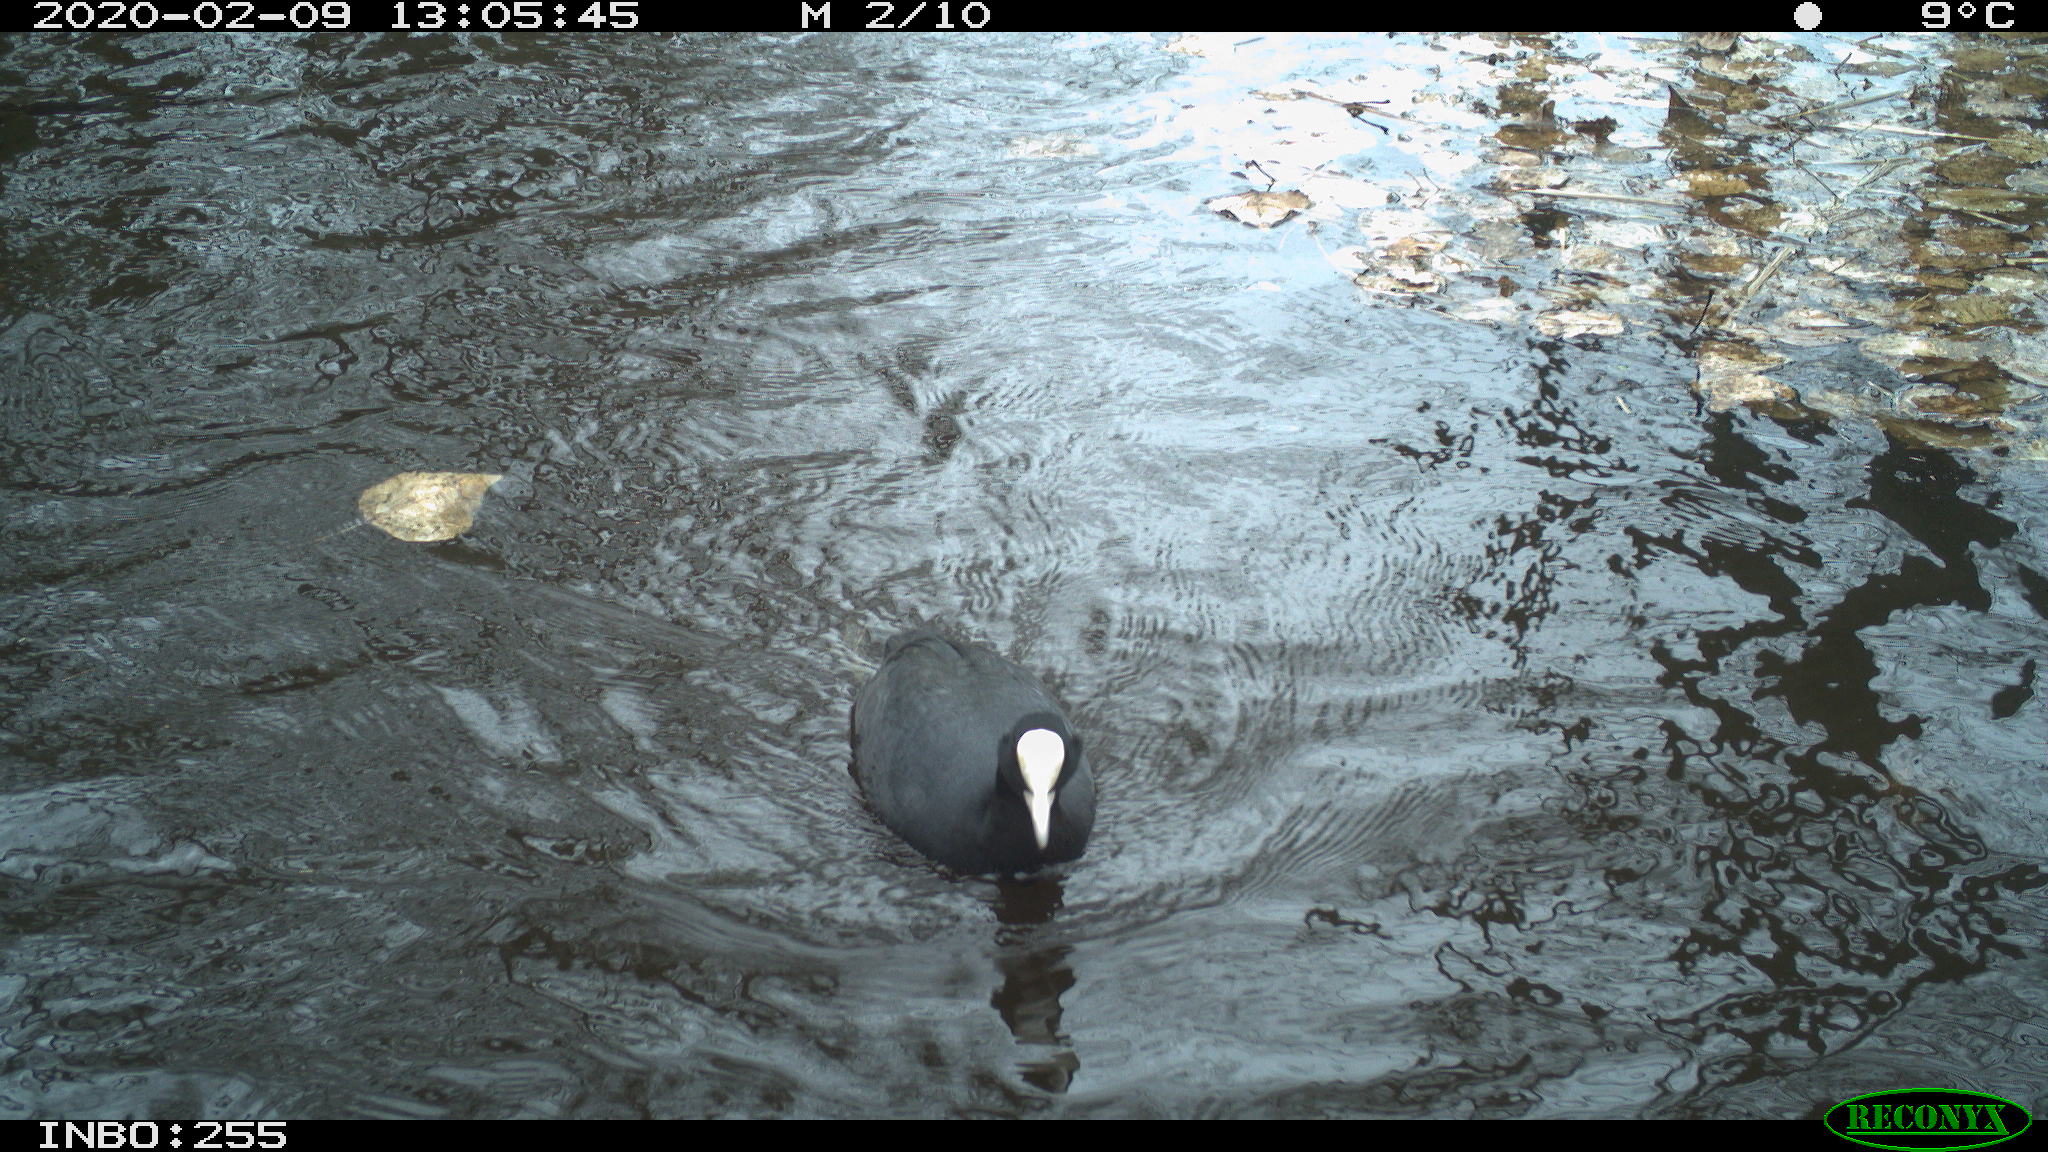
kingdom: Animalia
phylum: Chordata
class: Aves
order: Gruiformes
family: Rallidae
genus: Fulica
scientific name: Fulica atra
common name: Eurasian coot
